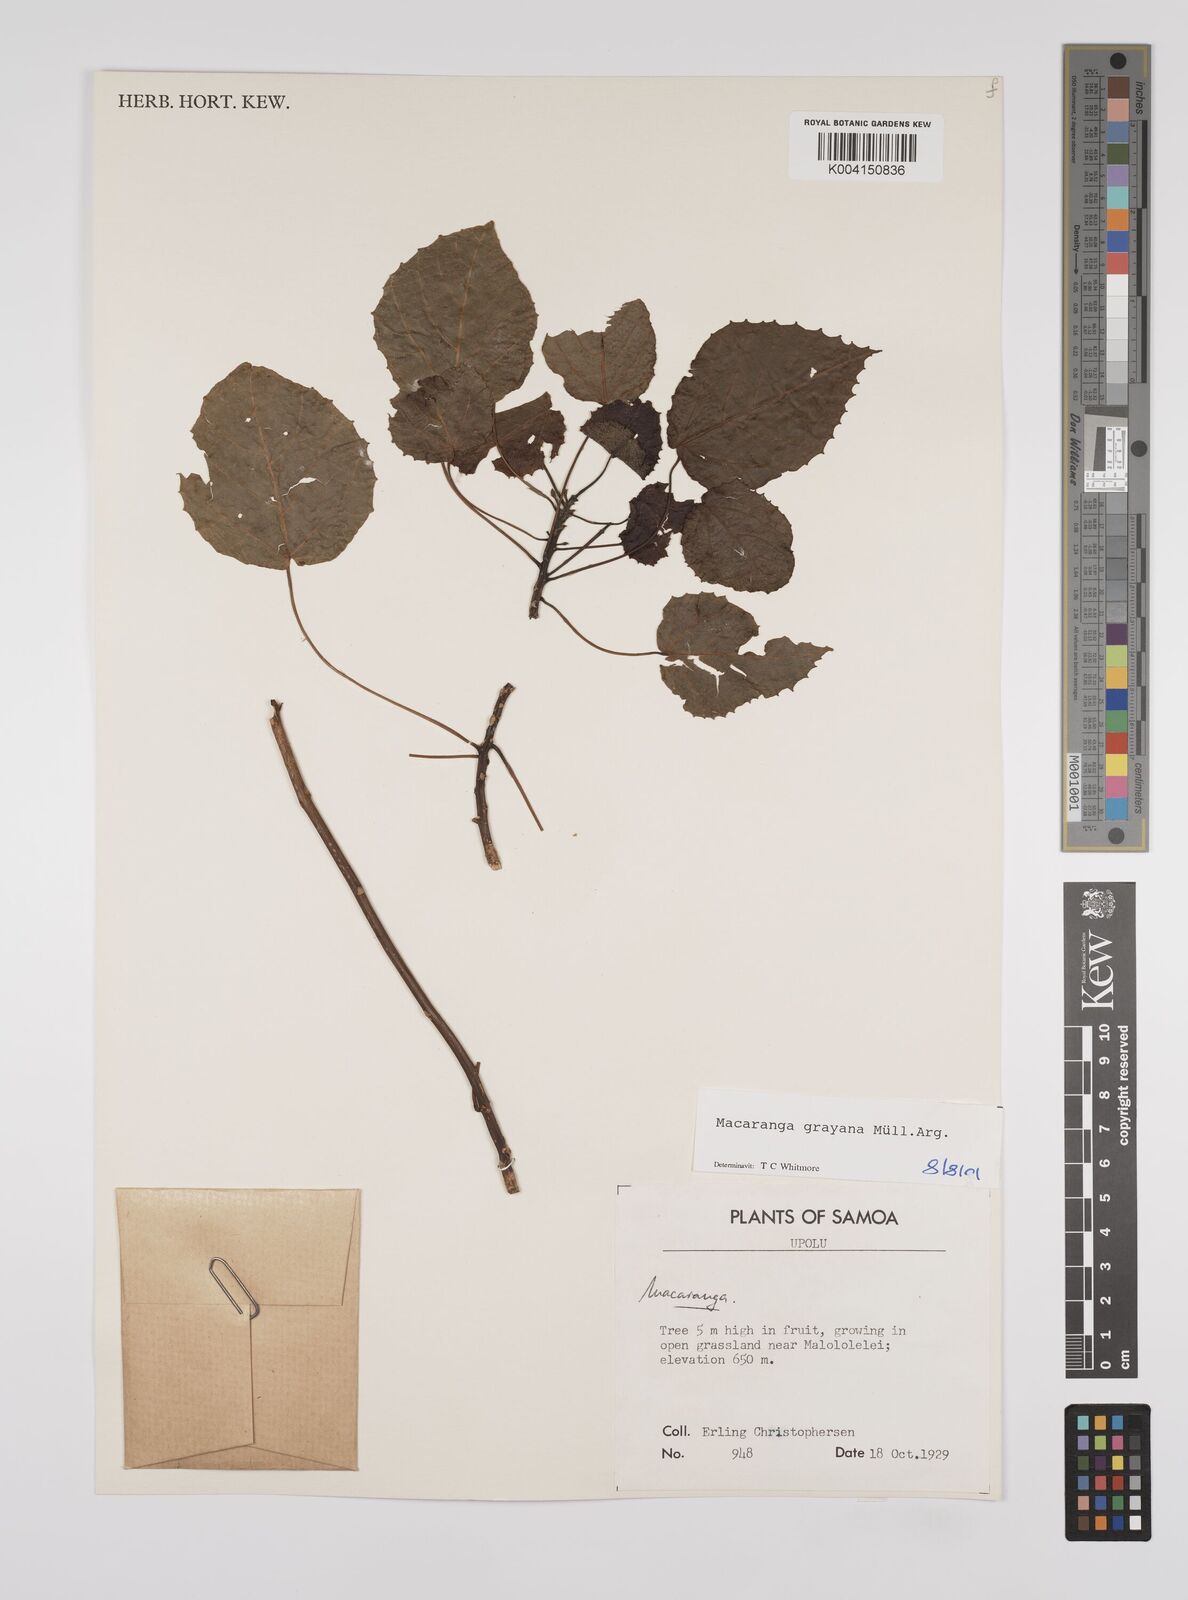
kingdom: Plantae
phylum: Tracheophyta
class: Magnoliopsida
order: Malpighiales
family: Euphorbiaceae
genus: Macaranga
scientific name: Macaranga grayana
